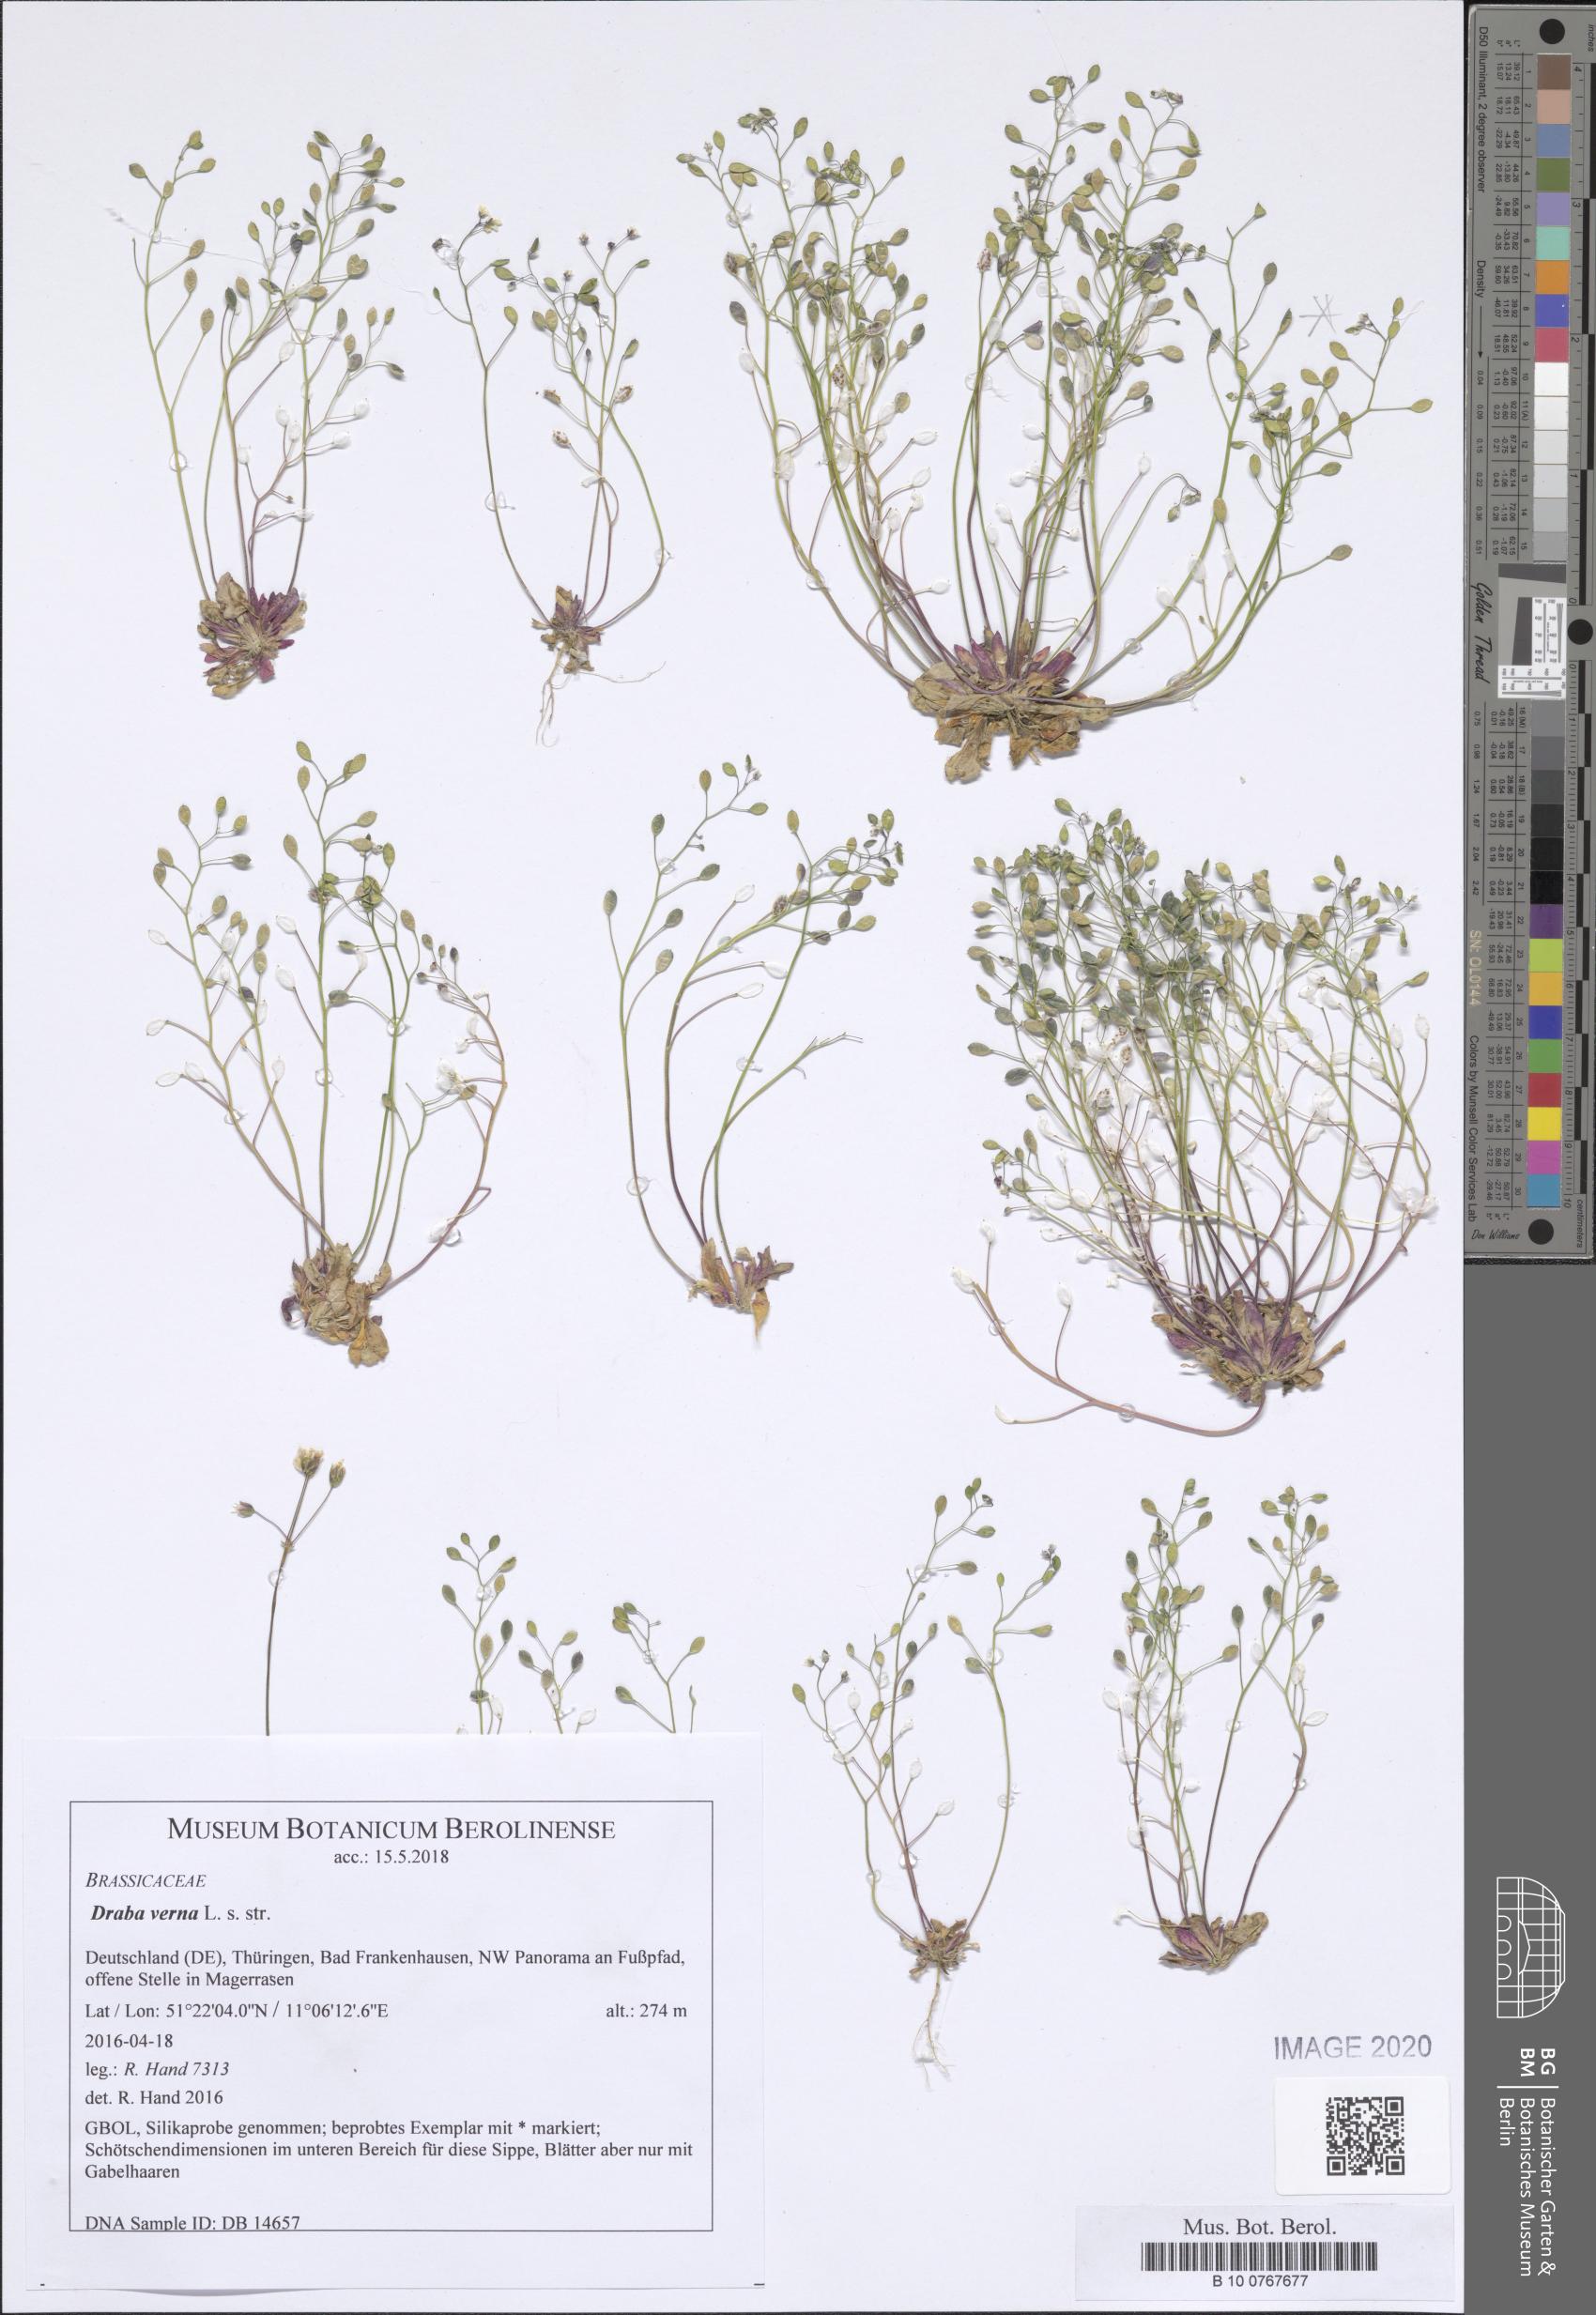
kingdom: Plantae
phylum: Tracheophyta
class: Magnoliopsida
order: Brassicales
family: Brassicaceae
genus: Draba
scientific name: Draba verna
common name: Spring draba
